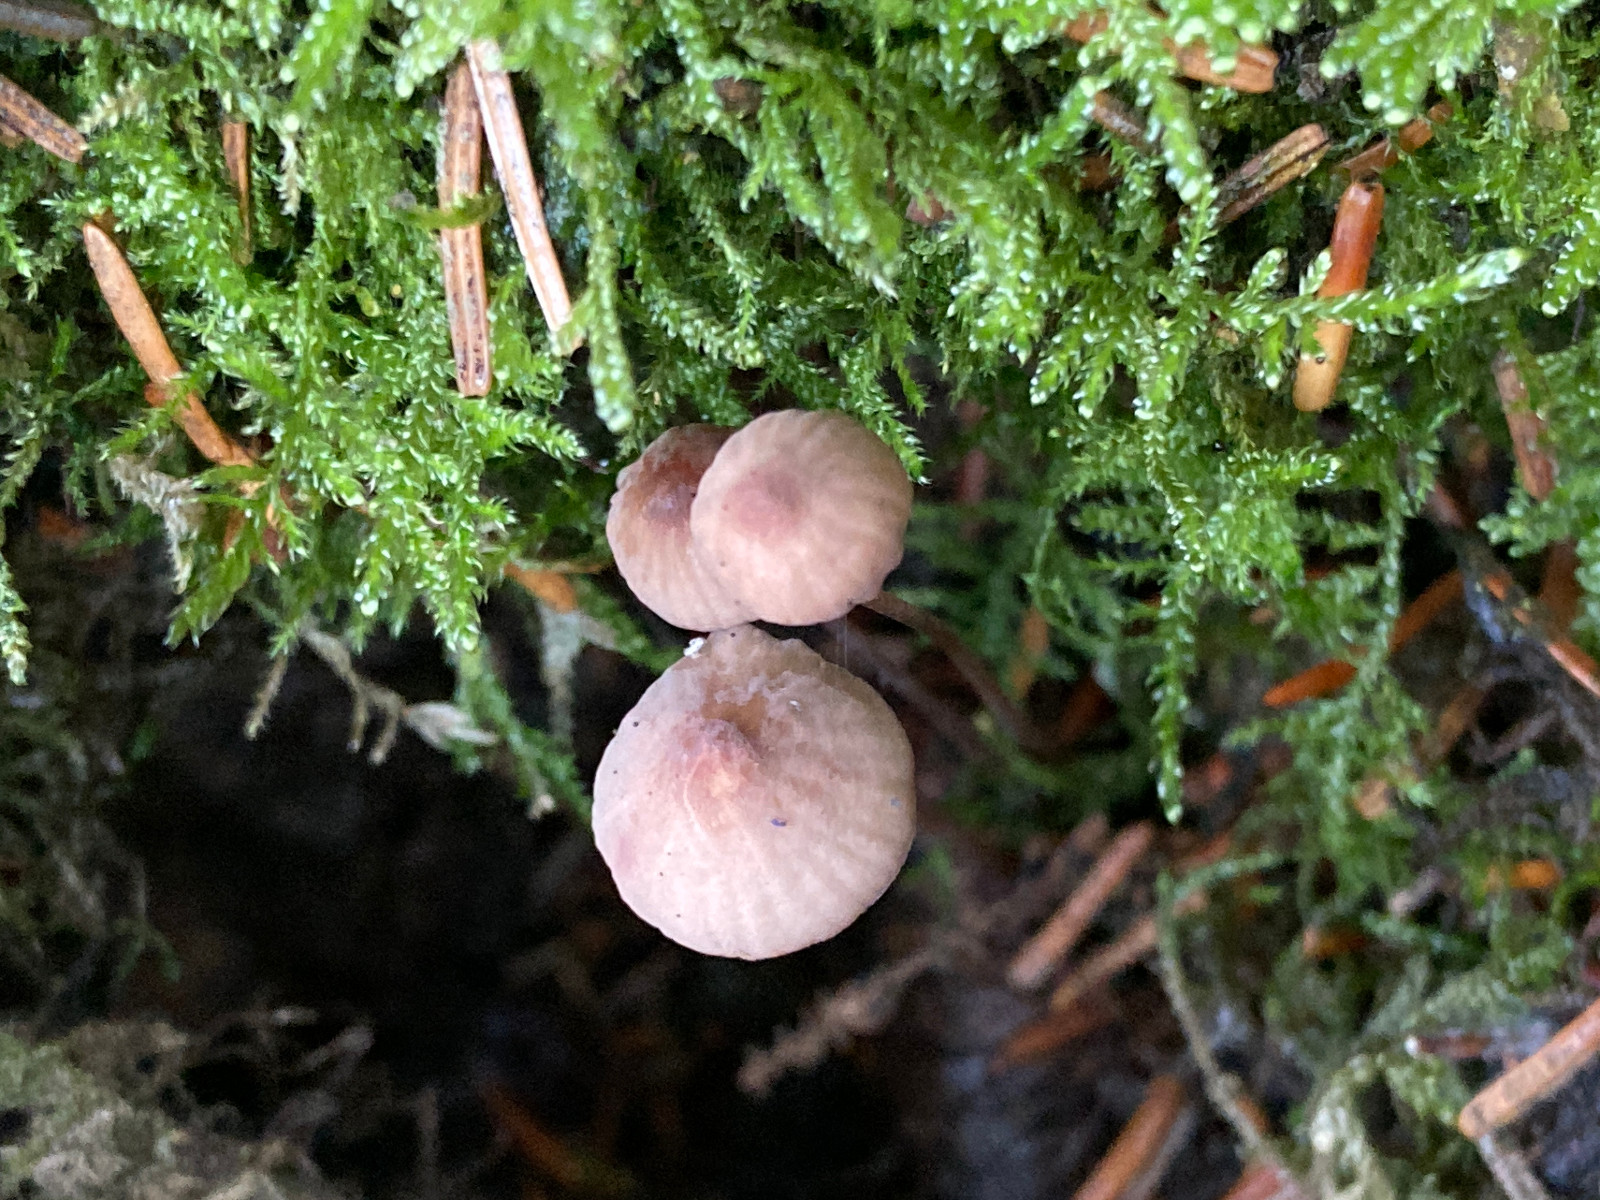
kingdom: Fungi
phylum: Basidiomycota
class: Agaricomycetes
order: Agaricales
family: Mycenaceae
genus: Mycena
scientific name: Mycena
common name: huesvamp
